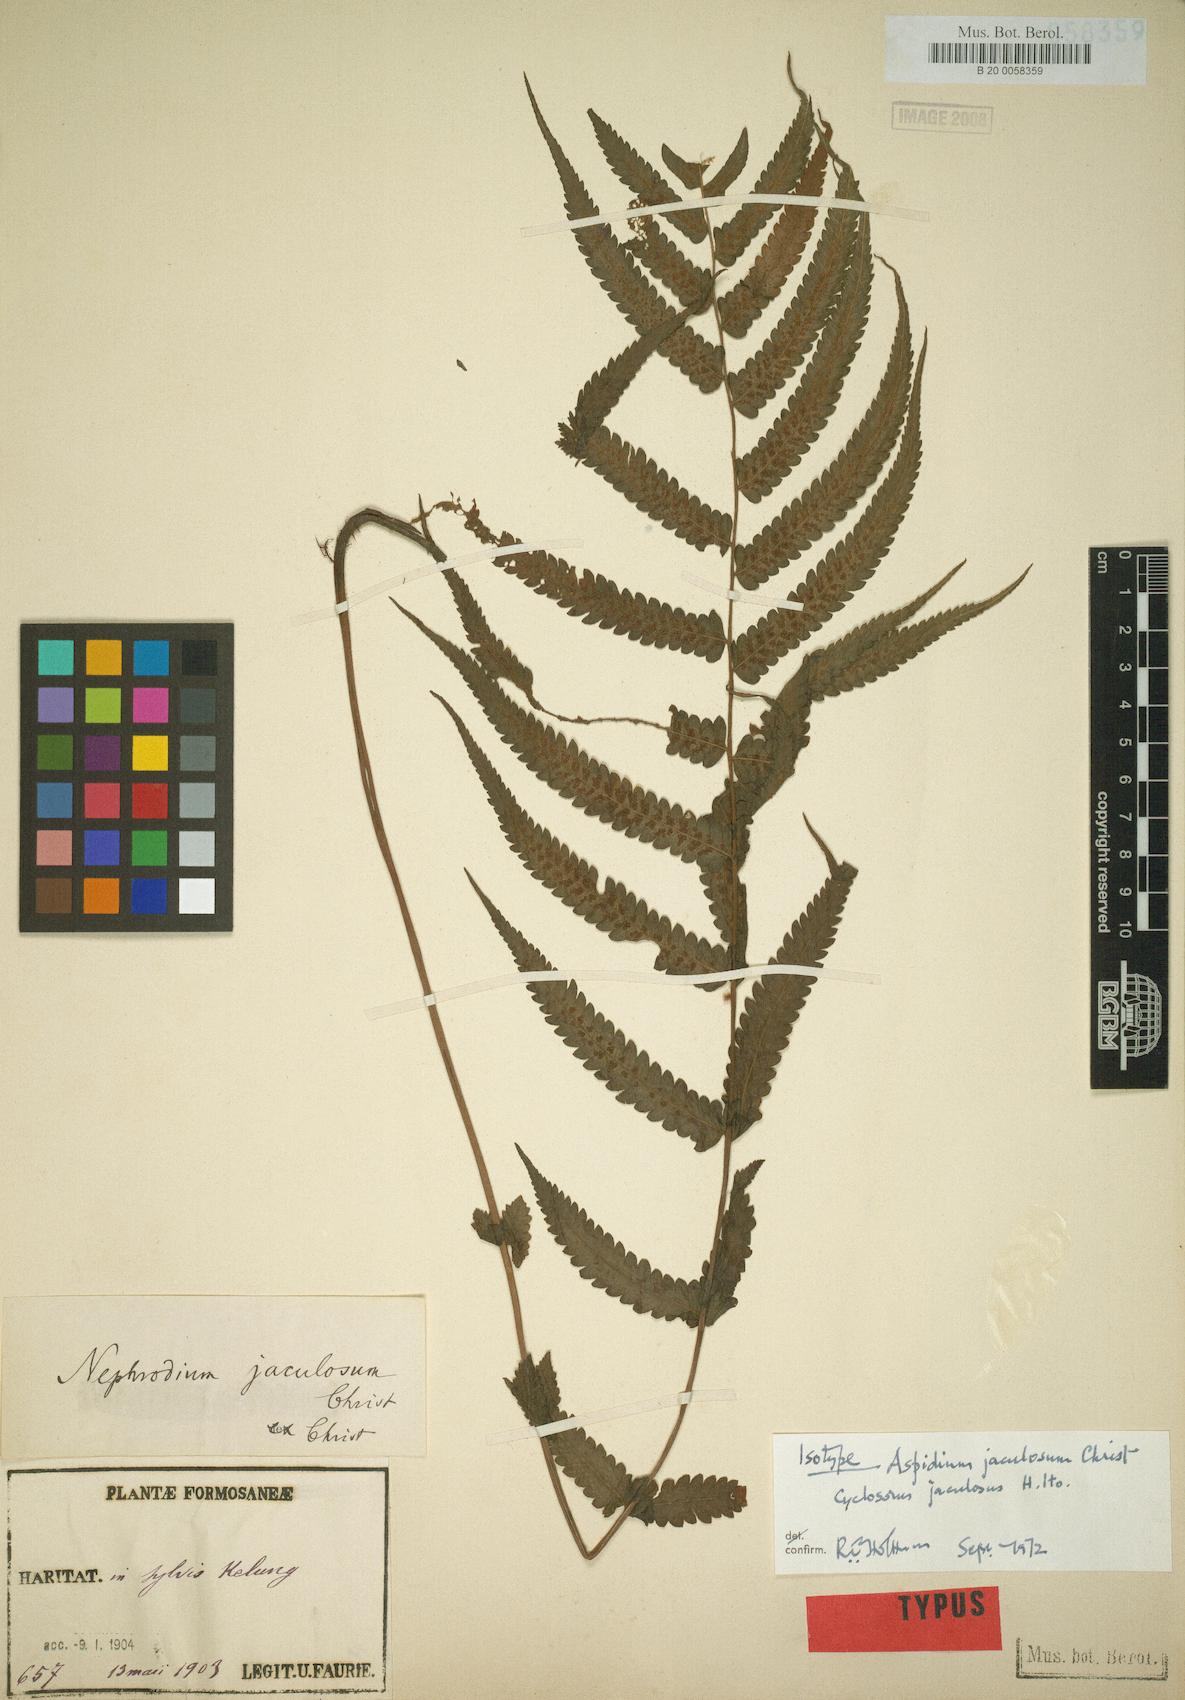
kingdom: Plantae
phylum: Tracheophyta
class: Polypodiopsida
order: Polypodiales
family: Thelypteridaceae
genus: Christella
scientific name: Christella jaculosa
